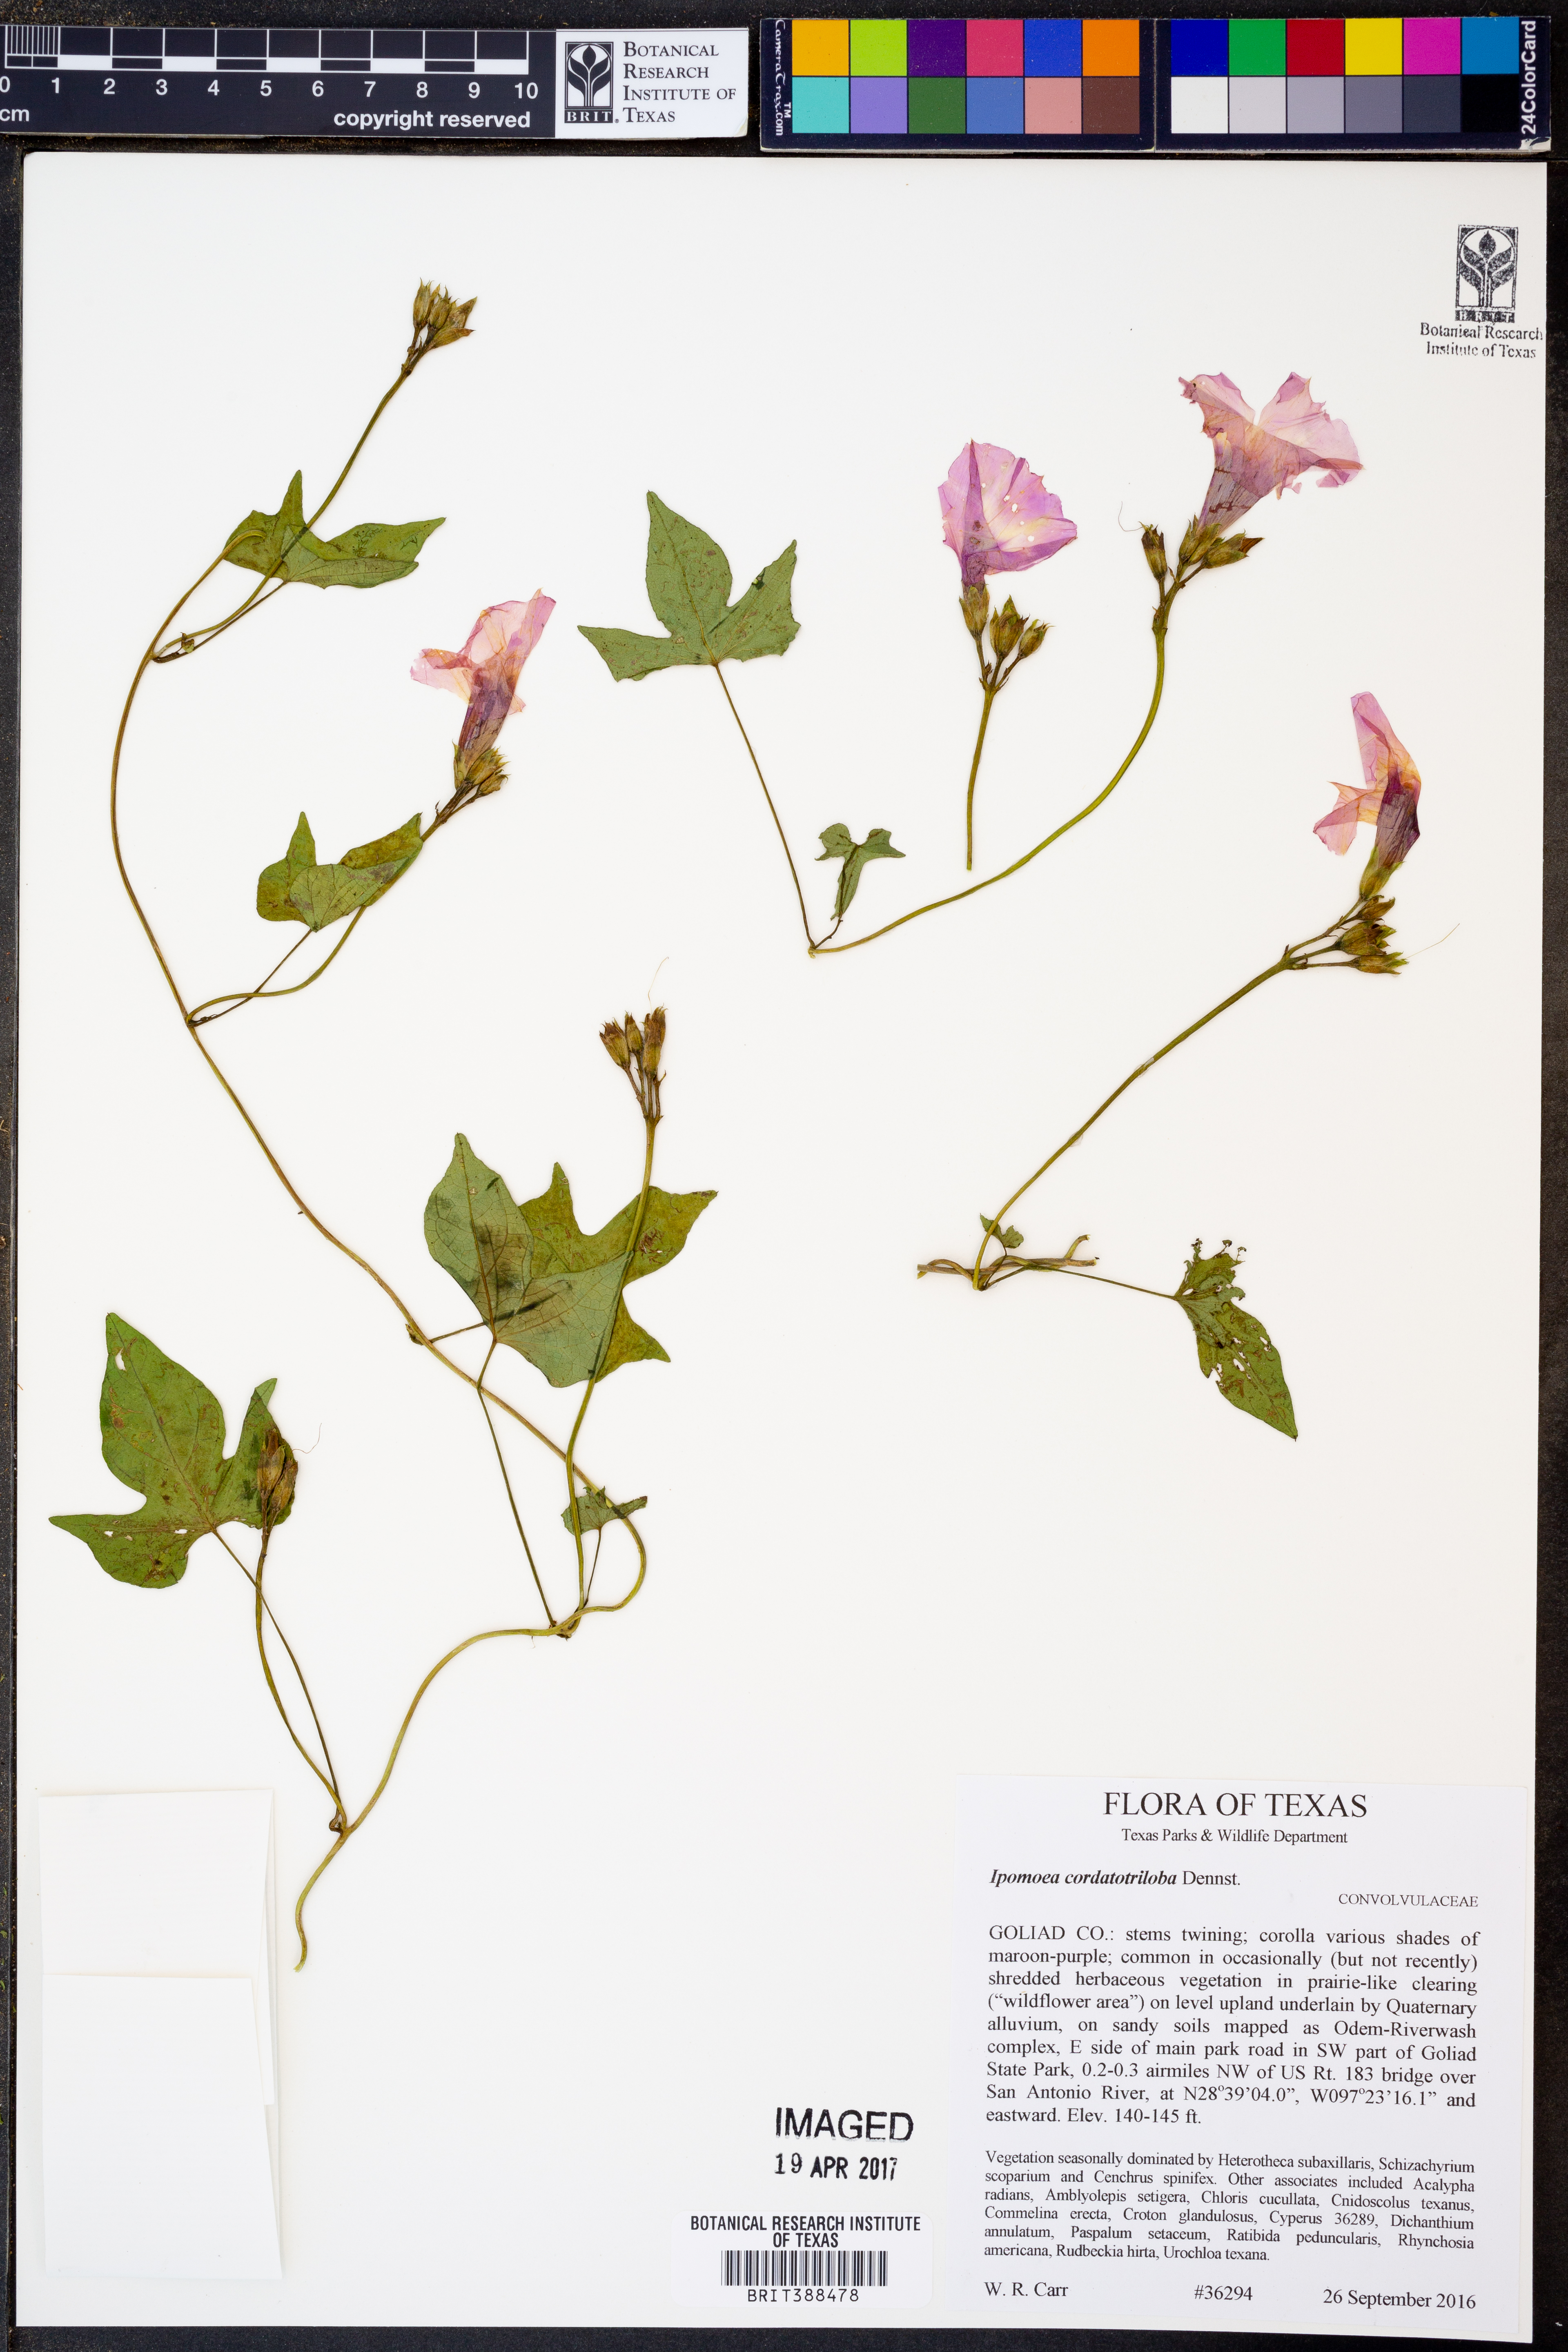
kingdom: Plantae
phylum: Tracheophyta
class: Magnoliopsida
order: Solanales
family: Convolvulaceae
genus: Ipomoea
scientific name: Ipomoea cordatotriloba
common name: Cotton morning glory
